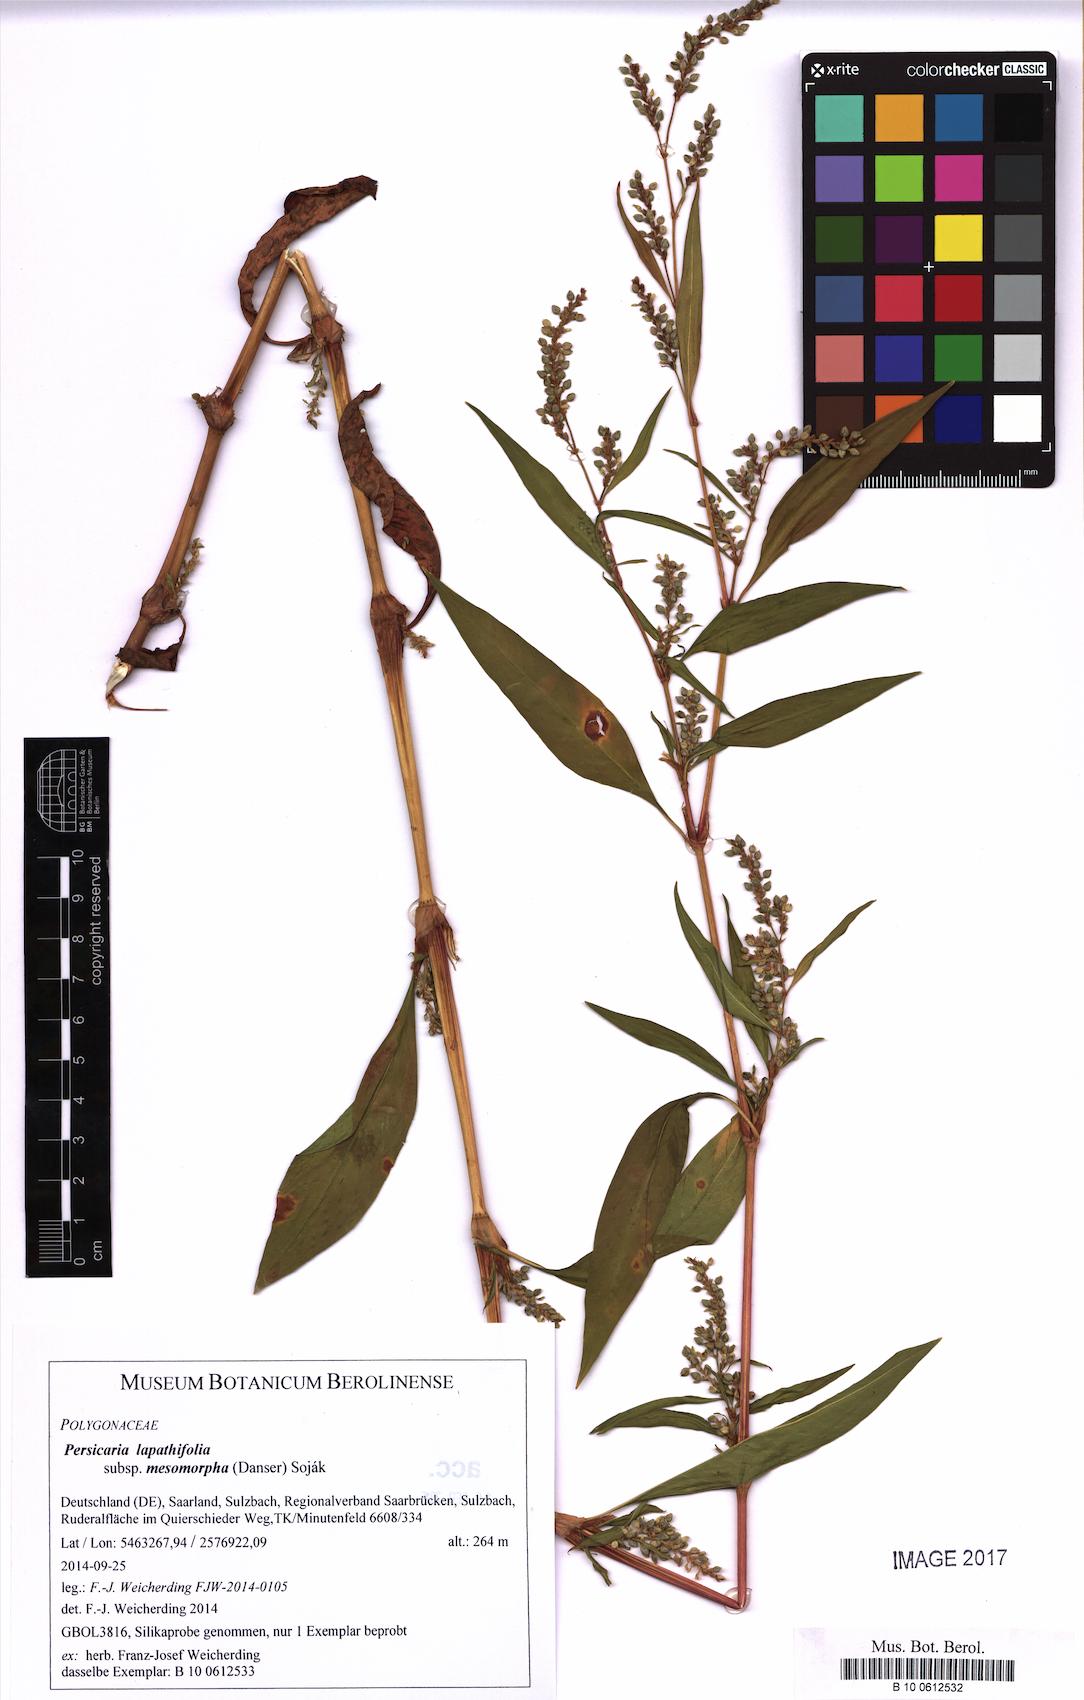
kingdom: Plantae
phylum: Tracheophyta
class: Magnoliopsida
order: Caryophyllales
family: Polygonaceae
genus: Persicaria
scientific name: Persicaria lapathifolia
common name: Curlytop knotweed
